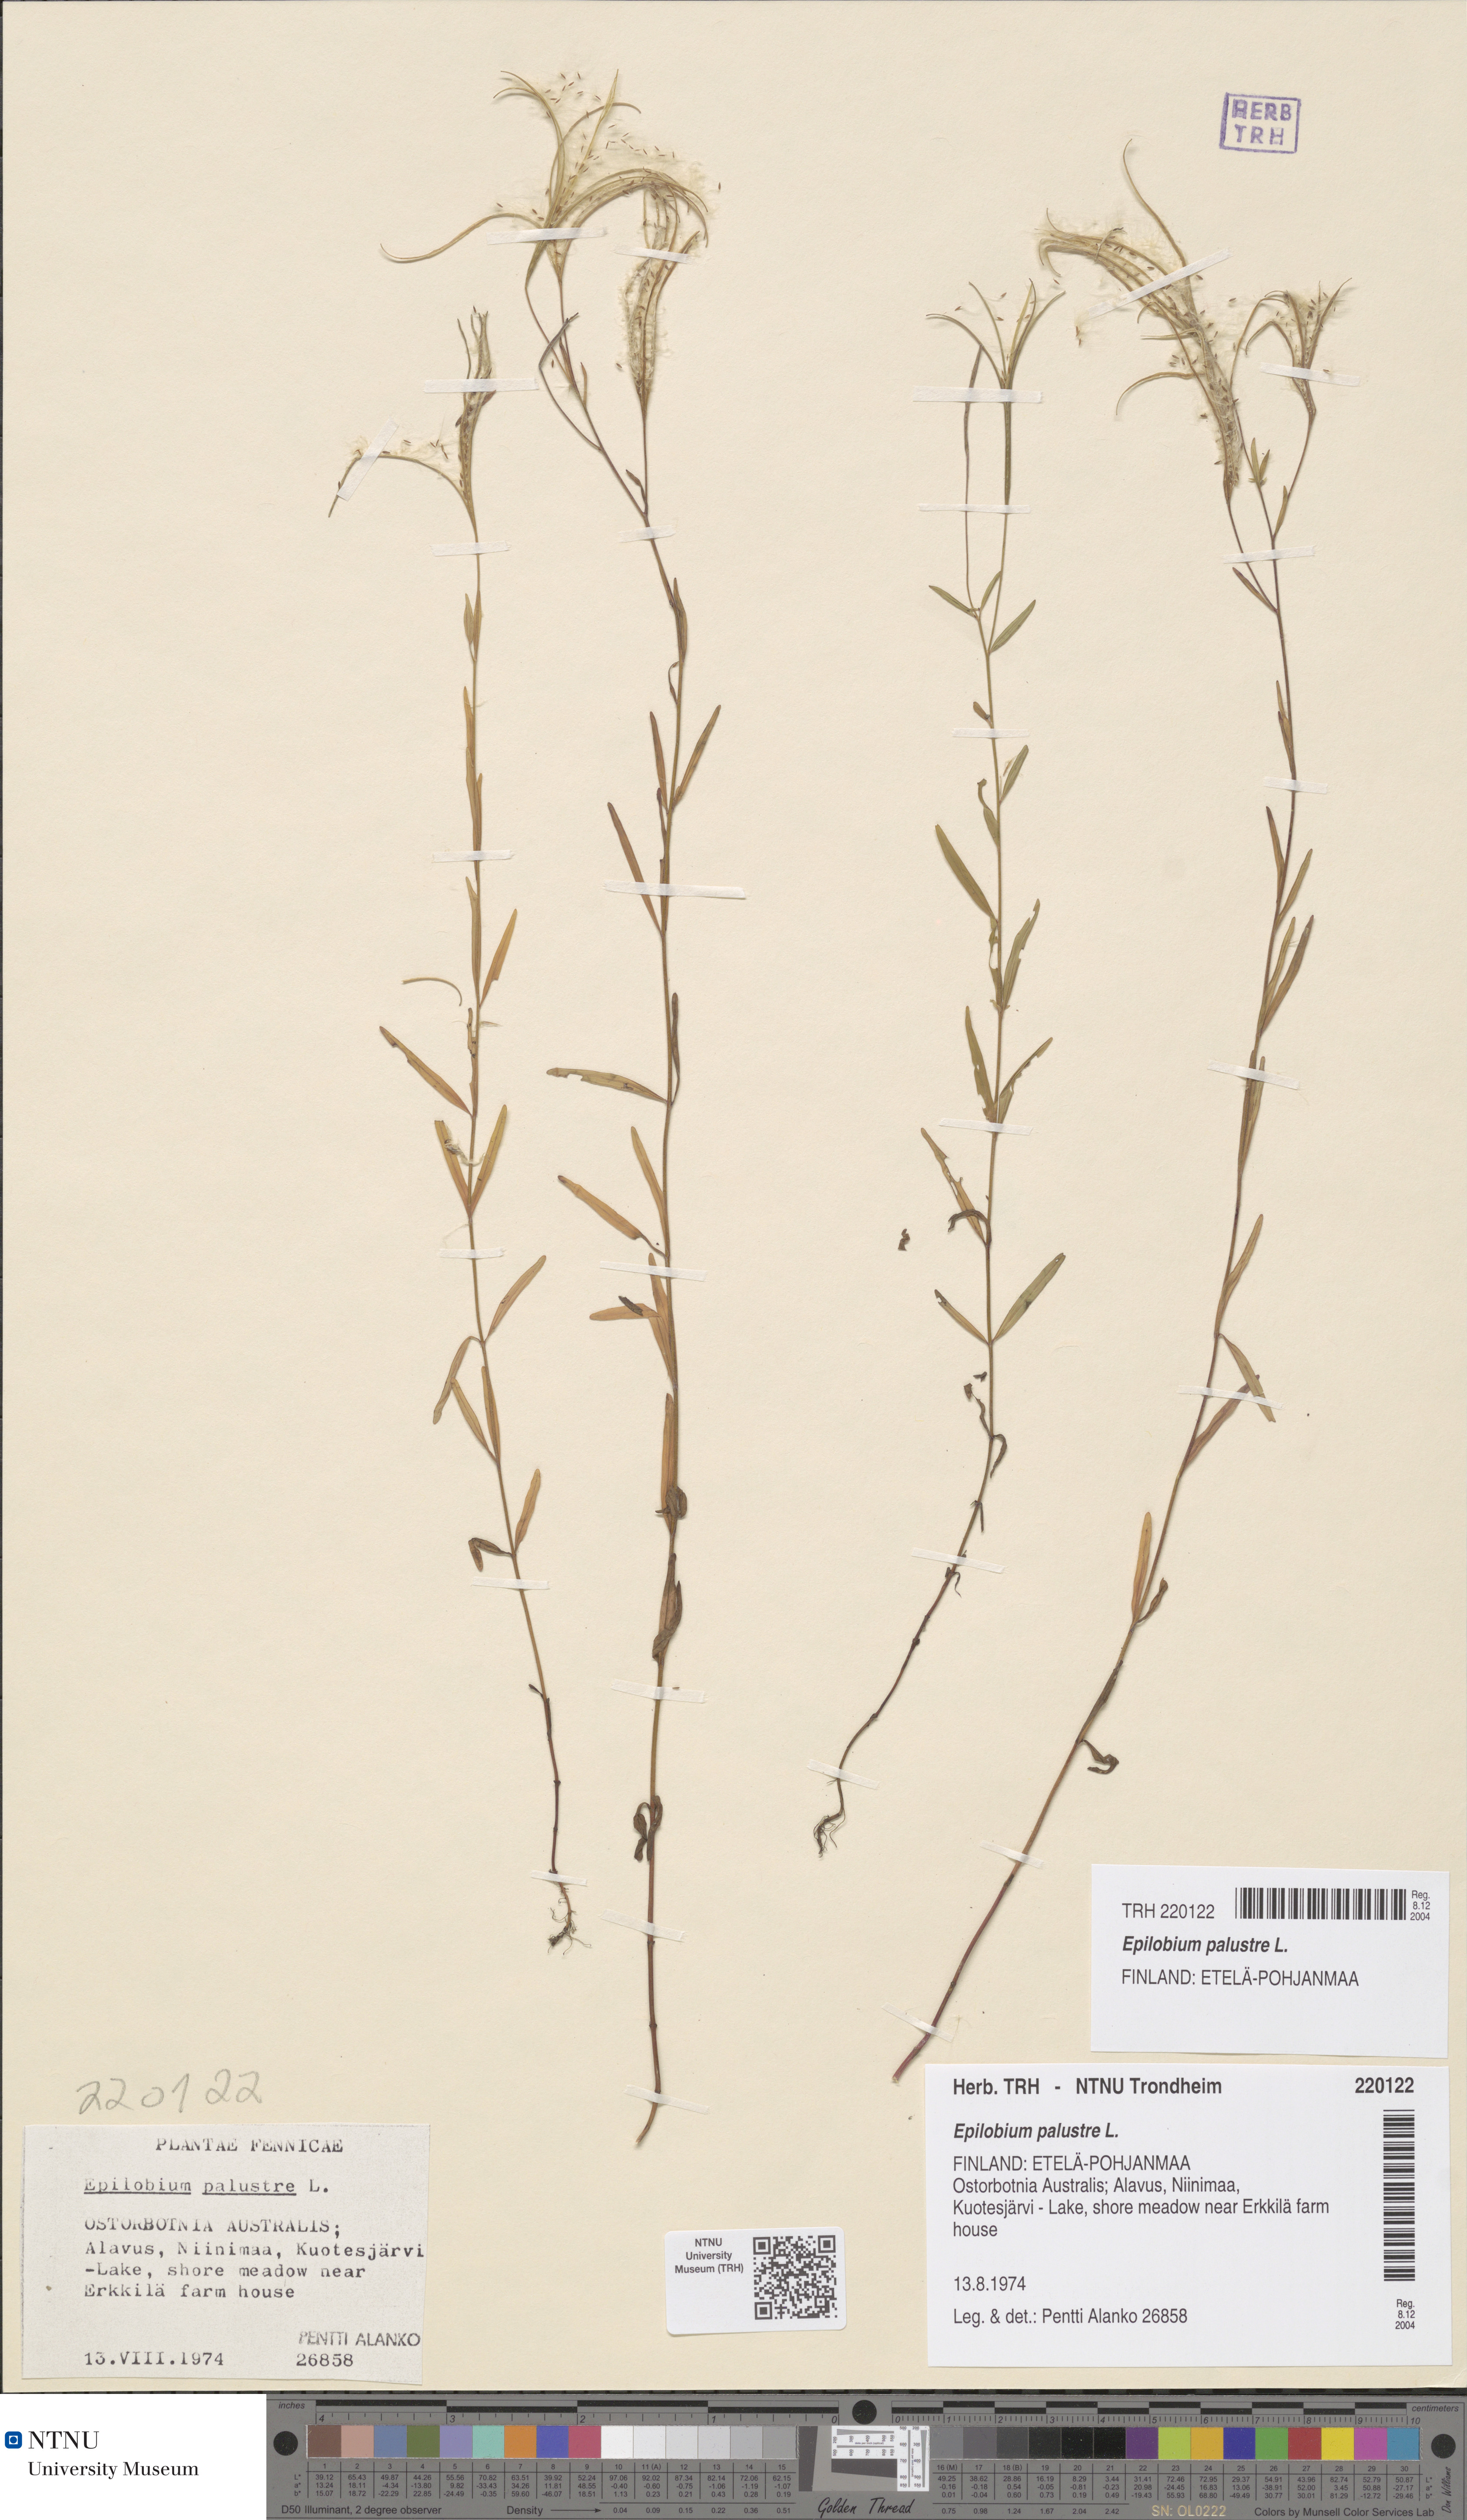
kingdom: Plantae
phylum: Tracheophyta
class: Magnoliopsida
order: Myrtales
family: Onagraceae
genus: Epilobium
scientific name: Epilobium palustre
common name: Marsh willowherb
